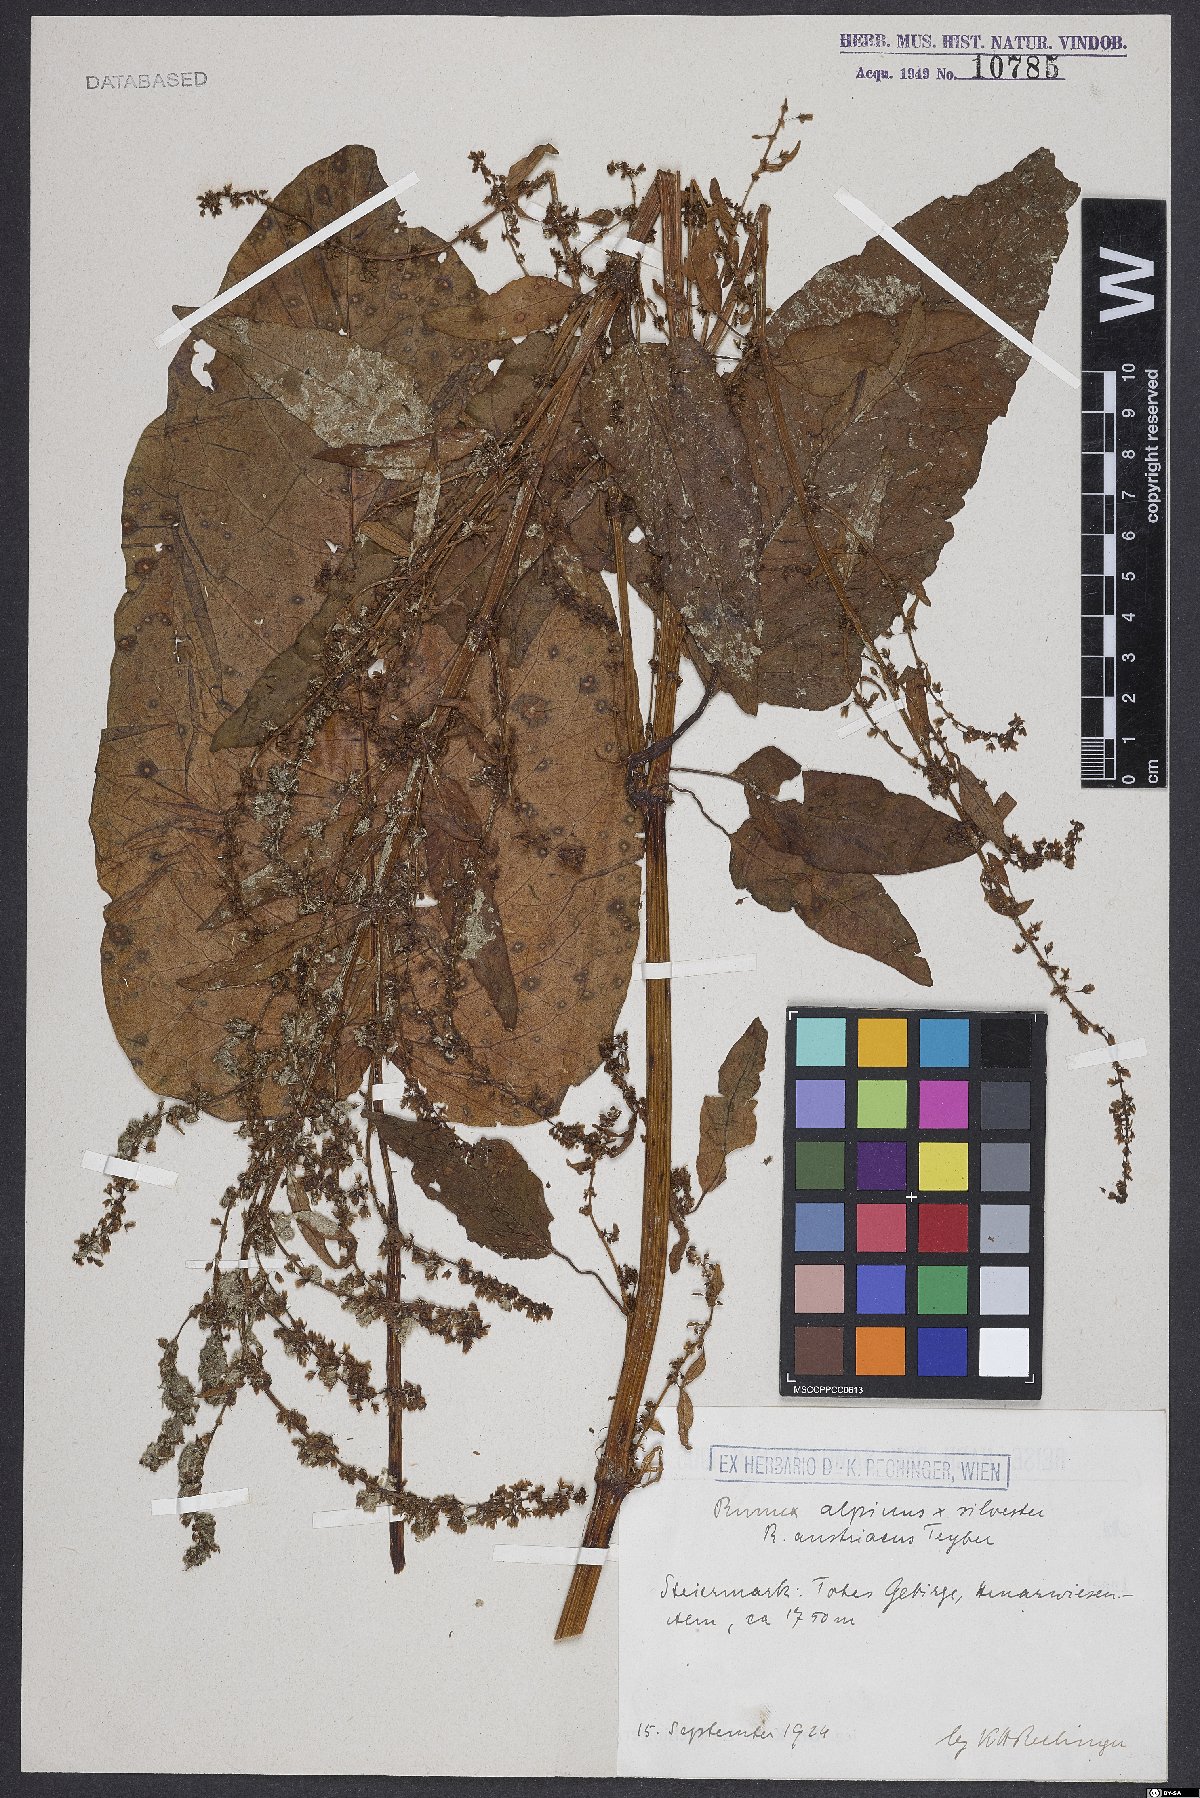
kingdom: Plantae
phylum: Tracheophyta
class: Magnoliopsida
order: Caryophyllales
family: Polygonaceae
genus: Rumex
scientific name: Rumex alpinus
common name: Alpine dock
